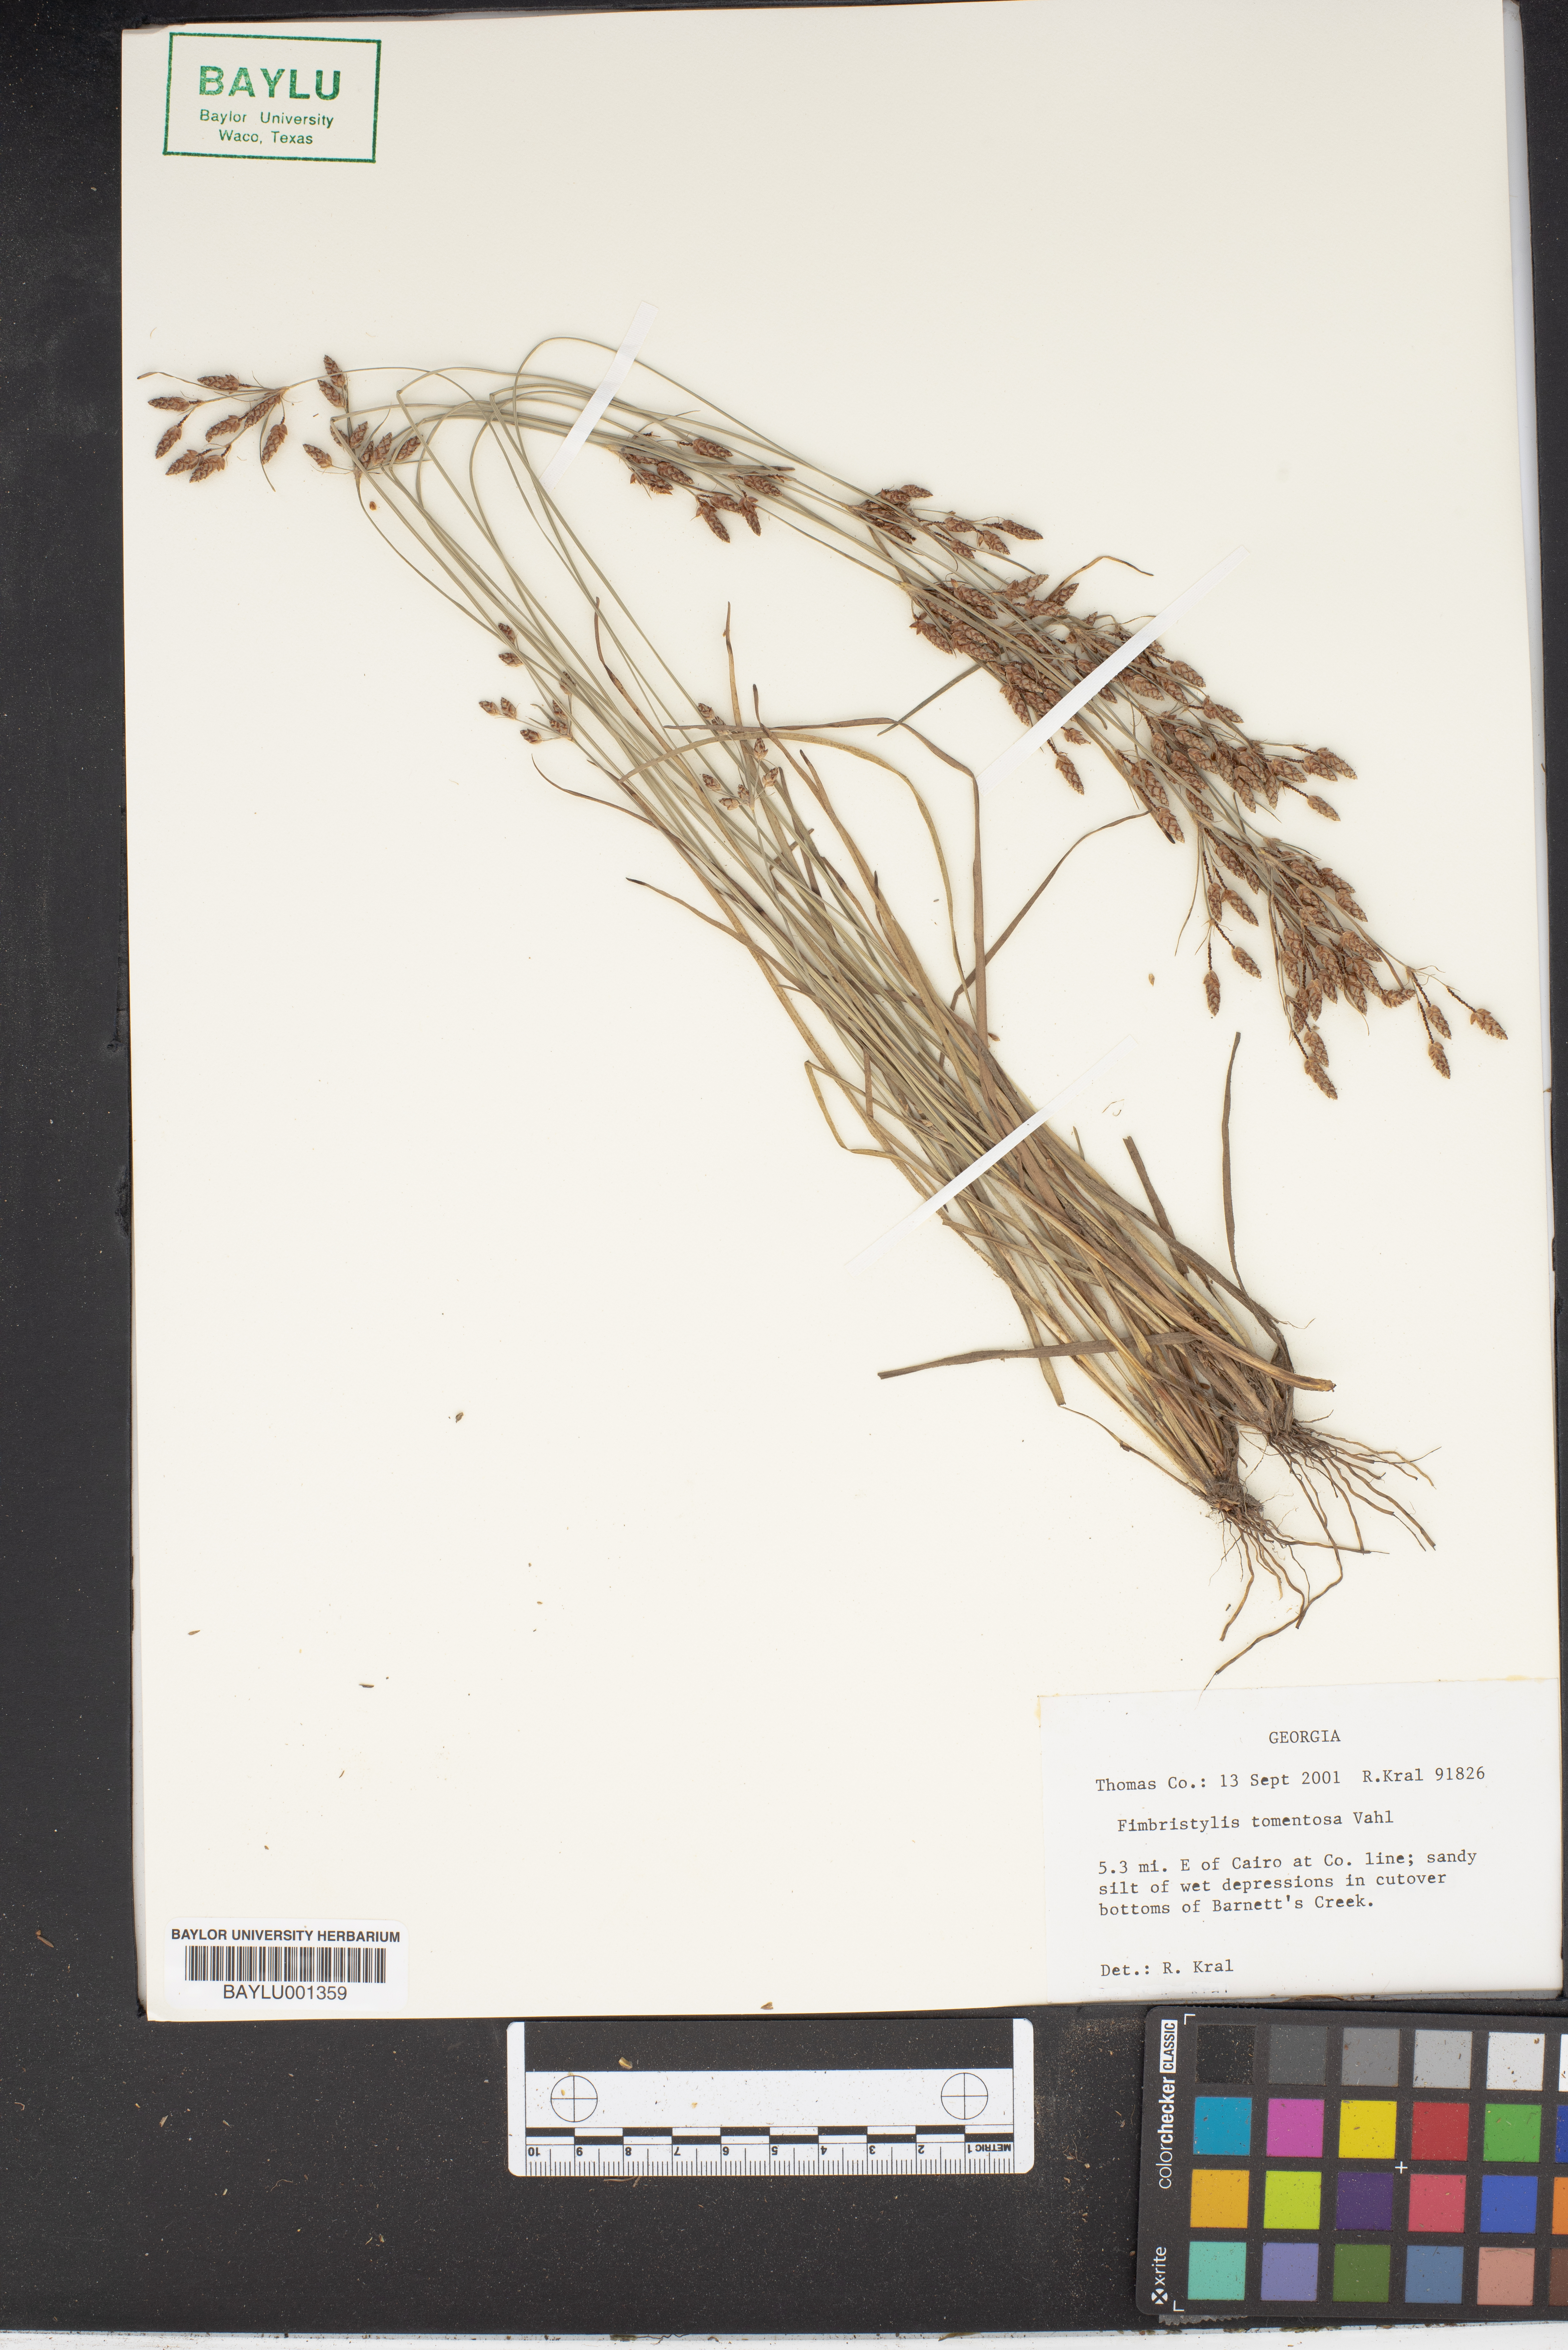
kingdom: Plantae
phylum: Tracheophyta
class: Liliopsida
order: Poales
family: Cyperaceae
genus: Fimbristylis
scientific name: Fimbristylis dichotoma
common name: Forked fimbry
